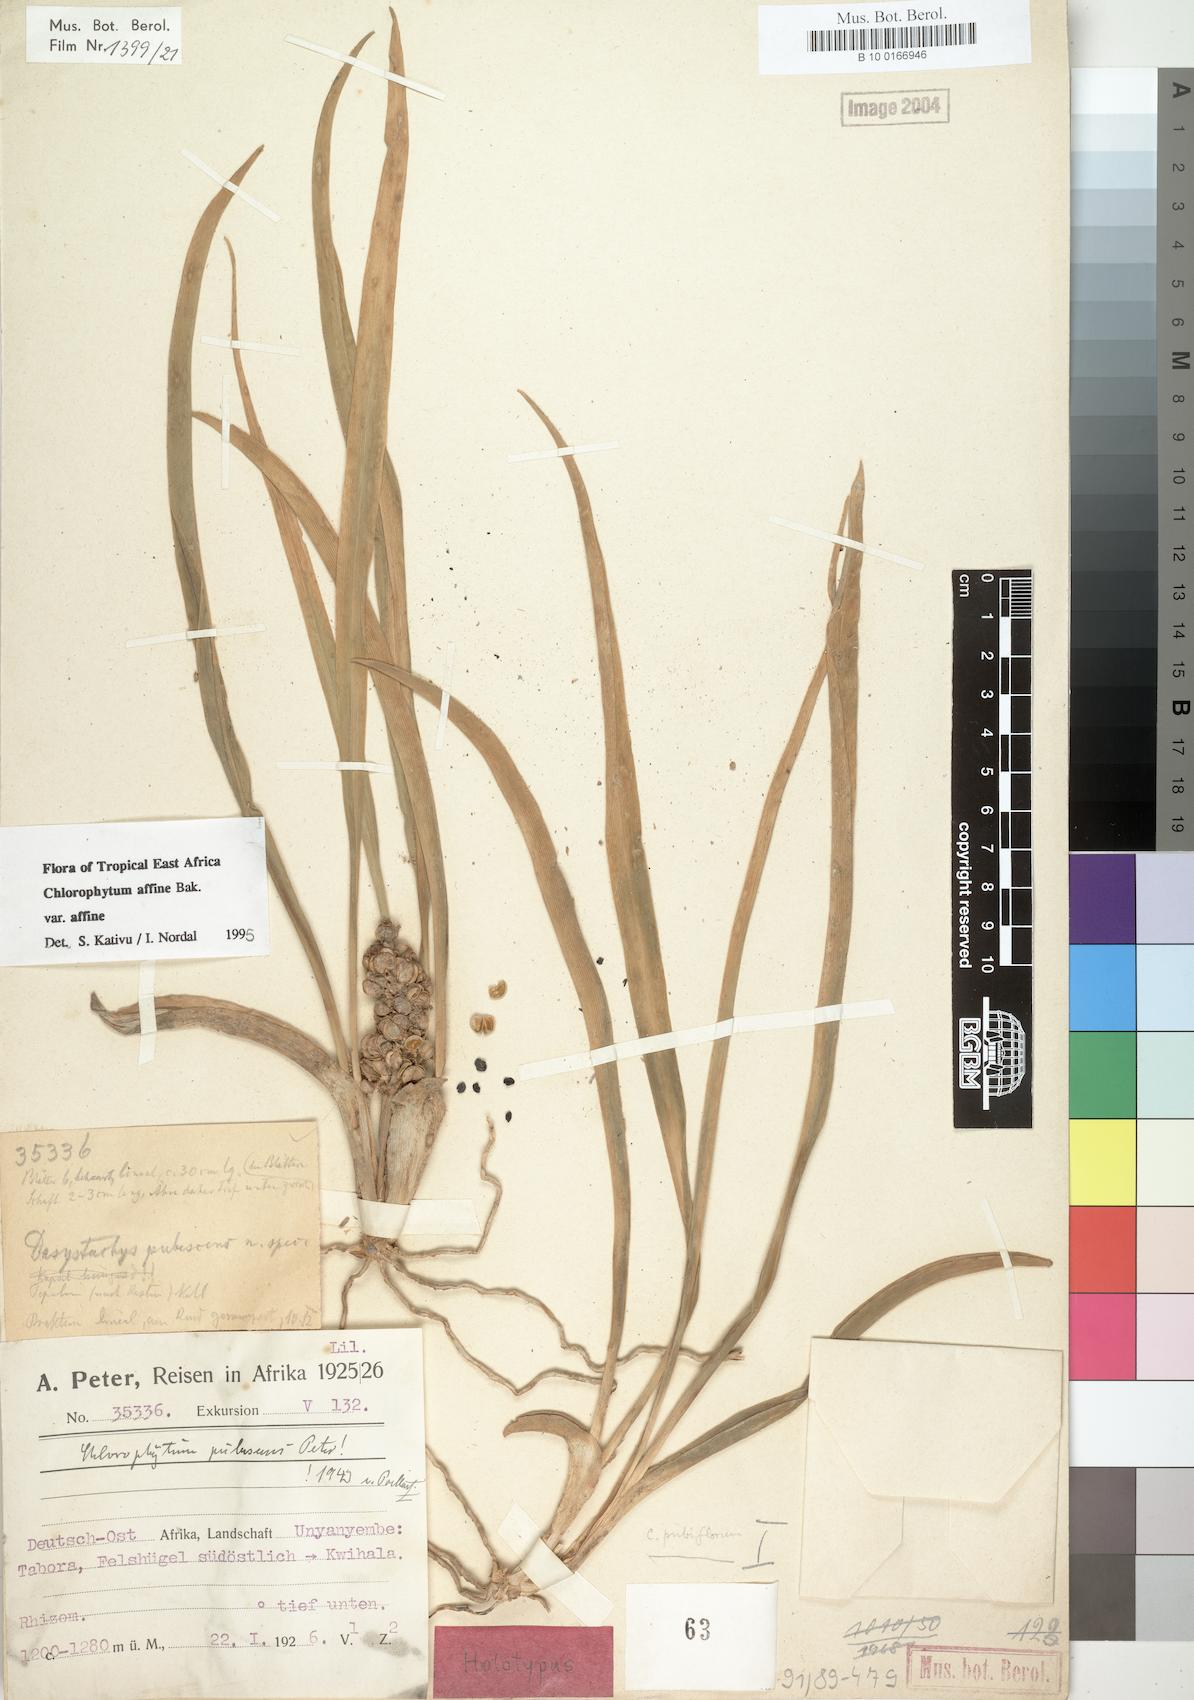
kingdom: Plantae
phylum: Tracheophyta
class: Liliopsida
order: Asparagales
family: Asparagaceae
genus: Chlorophytum
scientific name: Chlorophytum affine
